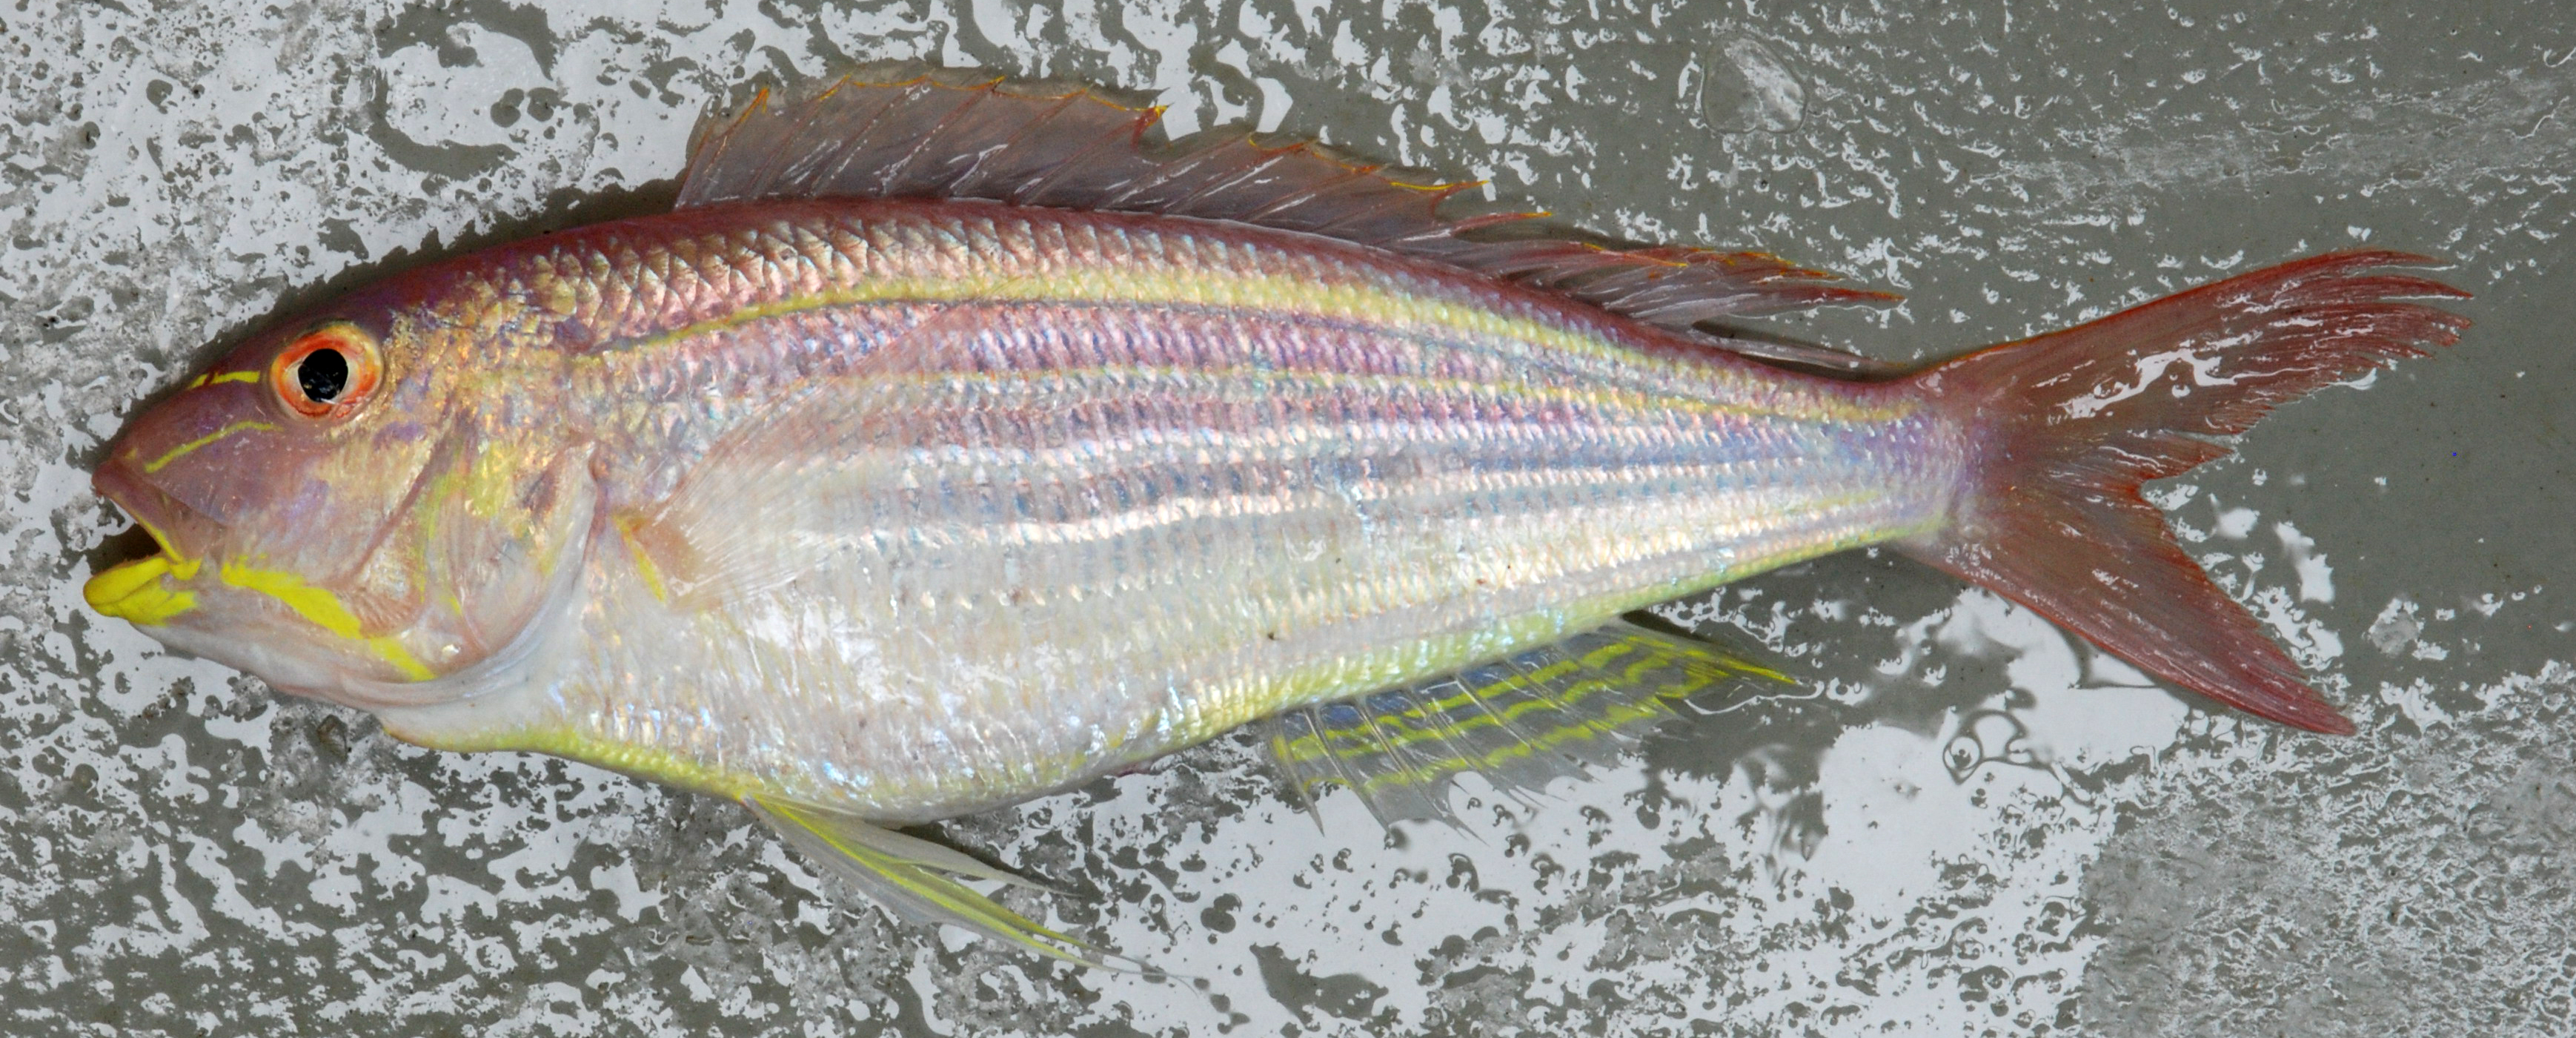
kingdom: Animalia
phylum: Chordata
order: Perciformes
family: Nemipteridae
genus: Nemipterus
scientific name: Nemipterus flavomandibularis
